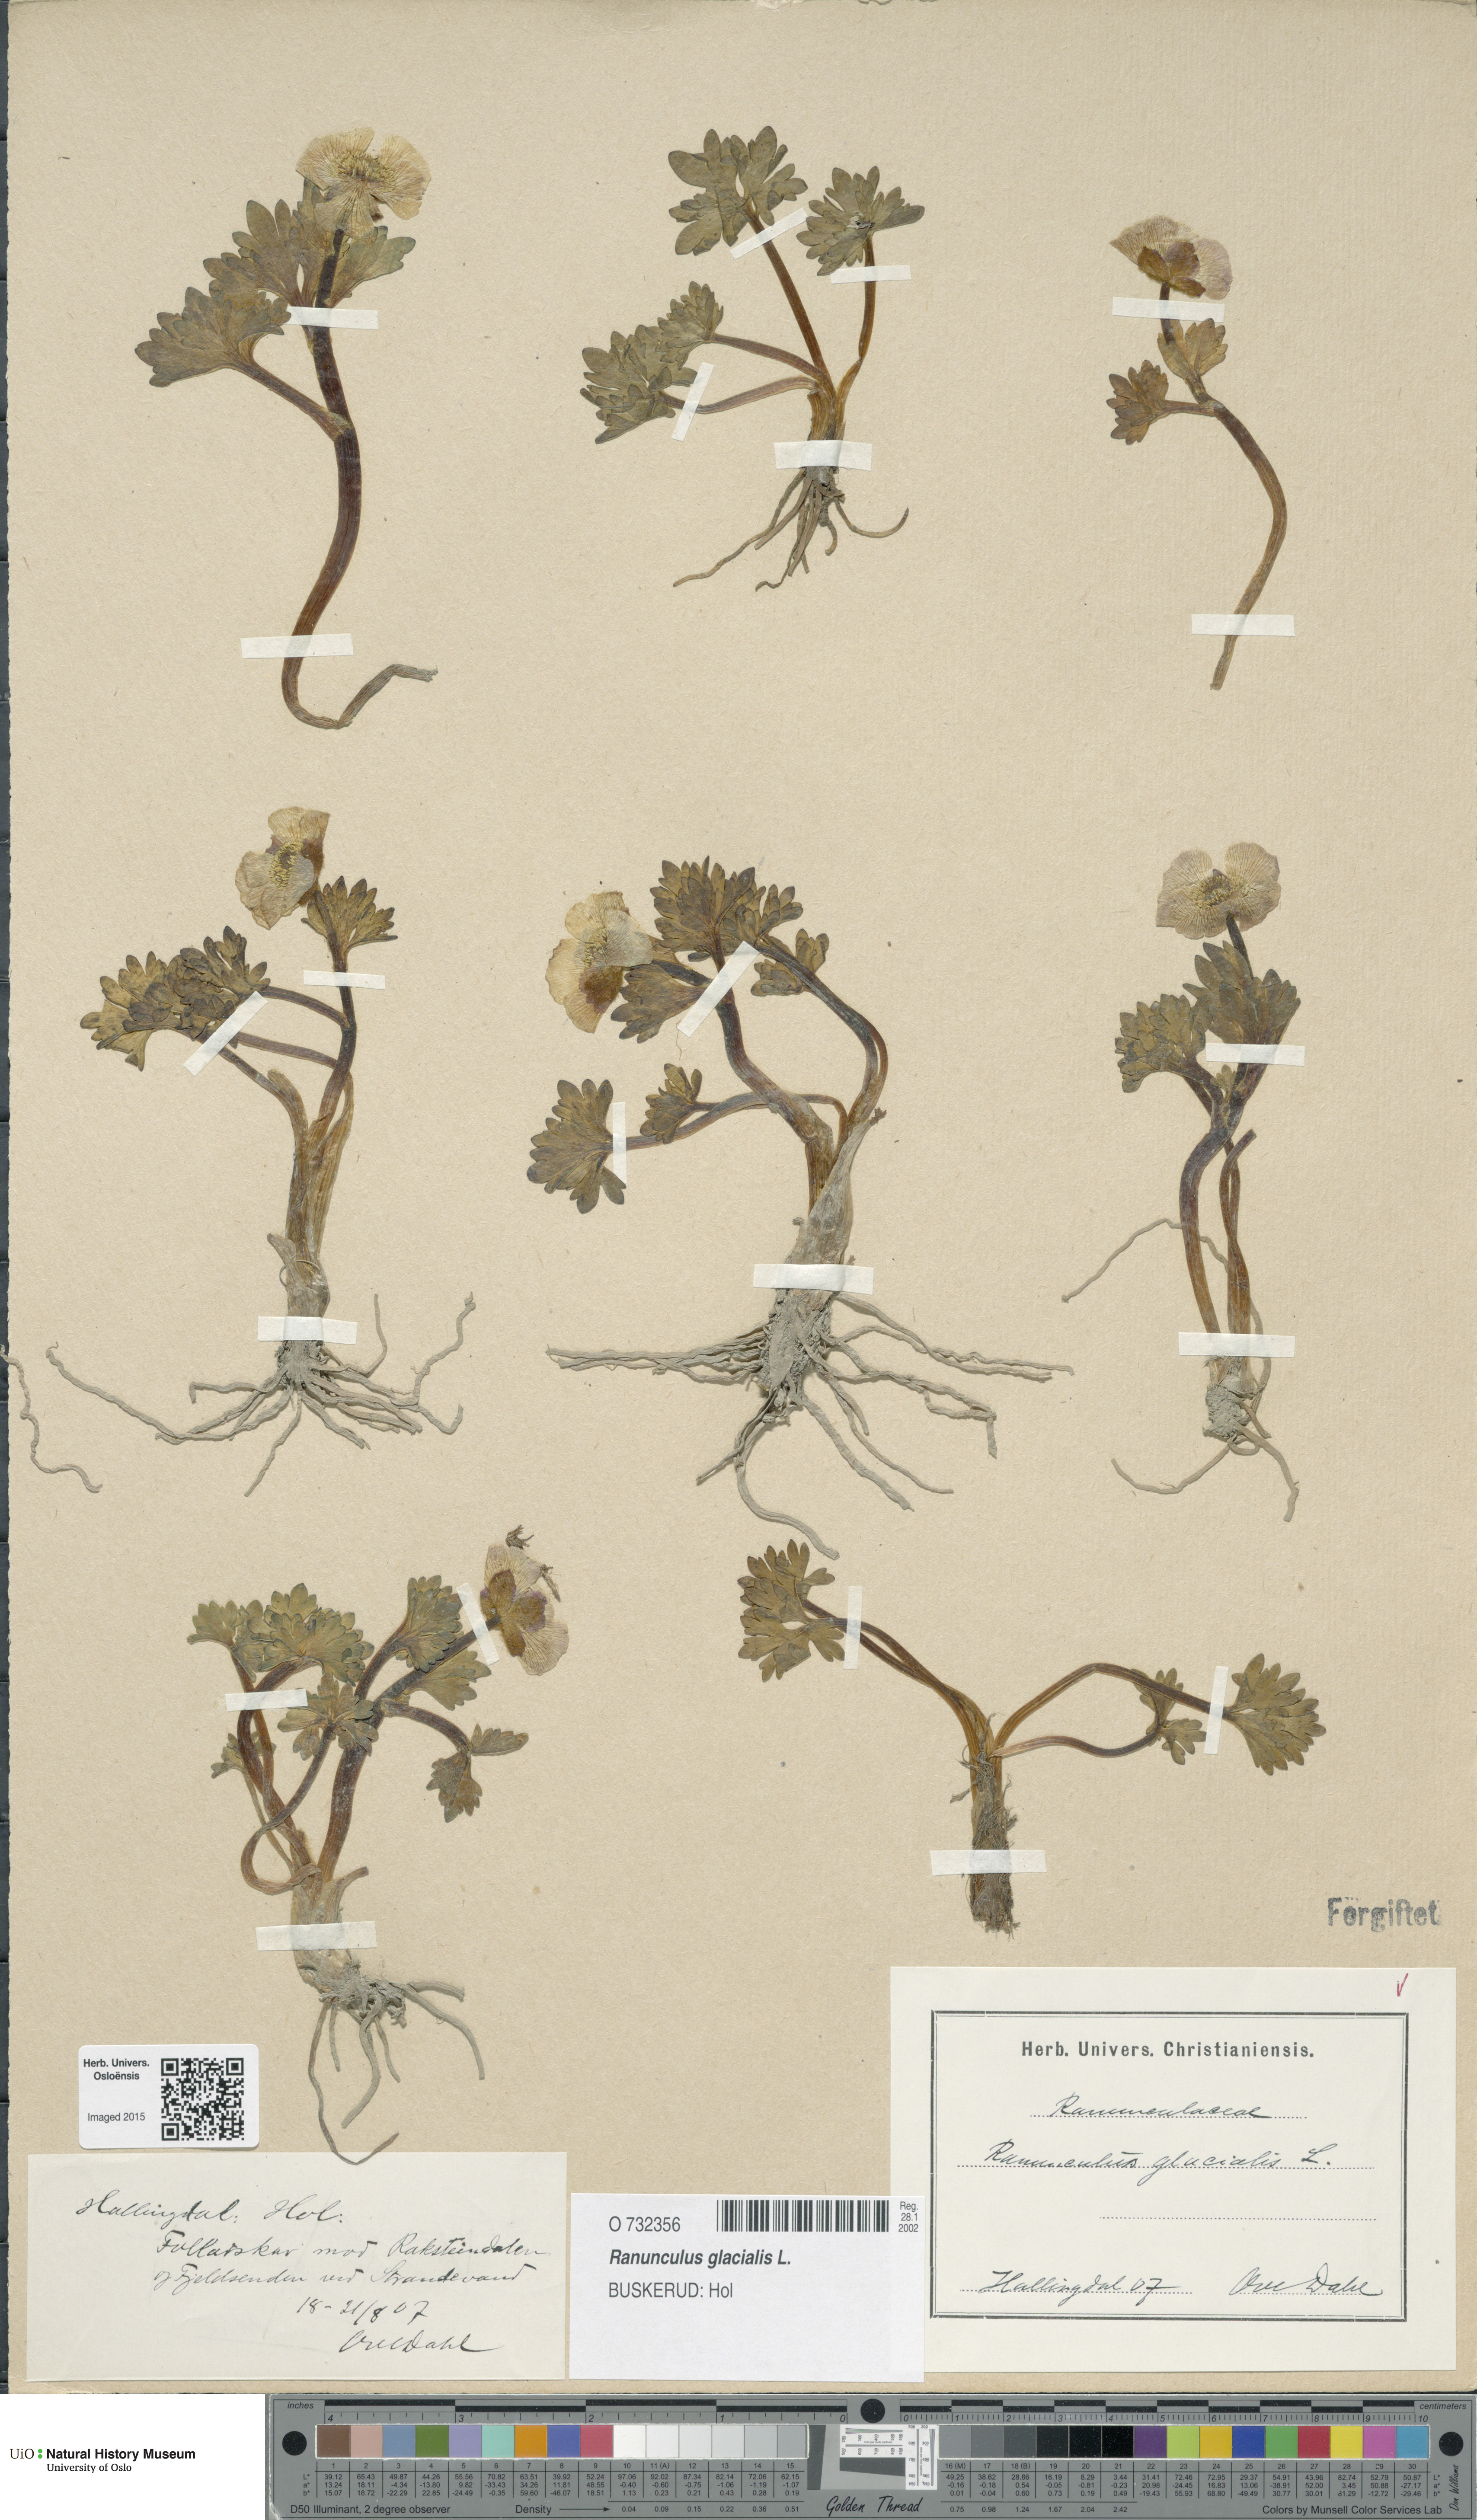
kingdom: Plantae
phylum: Tracheophyta
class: Magnoliopsida
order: Ranunculales
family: Ranunculaceae
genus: Ranunculus
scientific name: Ranunculus glacialis
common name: Glacier buttercup
